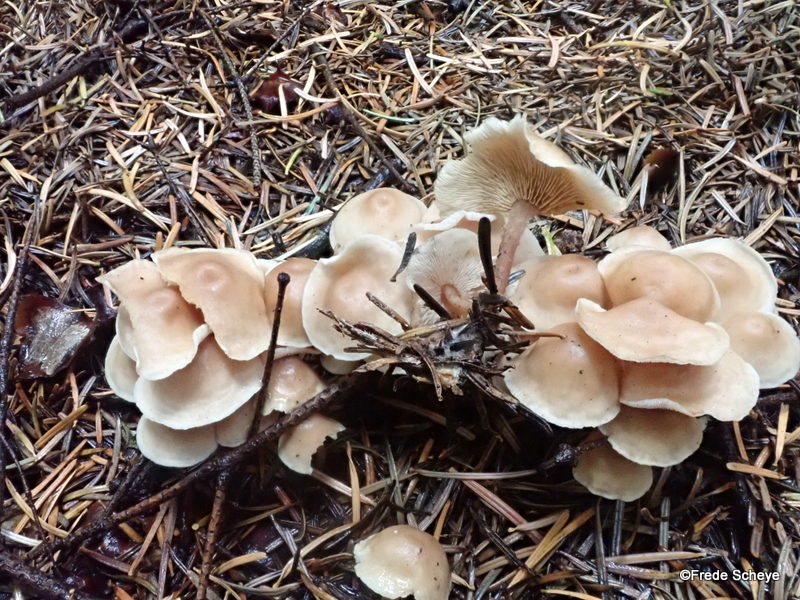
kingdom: Fungi
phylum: Basidiomycota
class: Agaricomycetes
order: Agaricales
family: Omphalotaceae
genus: Collybiopsis
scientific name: Collybiopsis confluens
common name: knippe-fladhat
